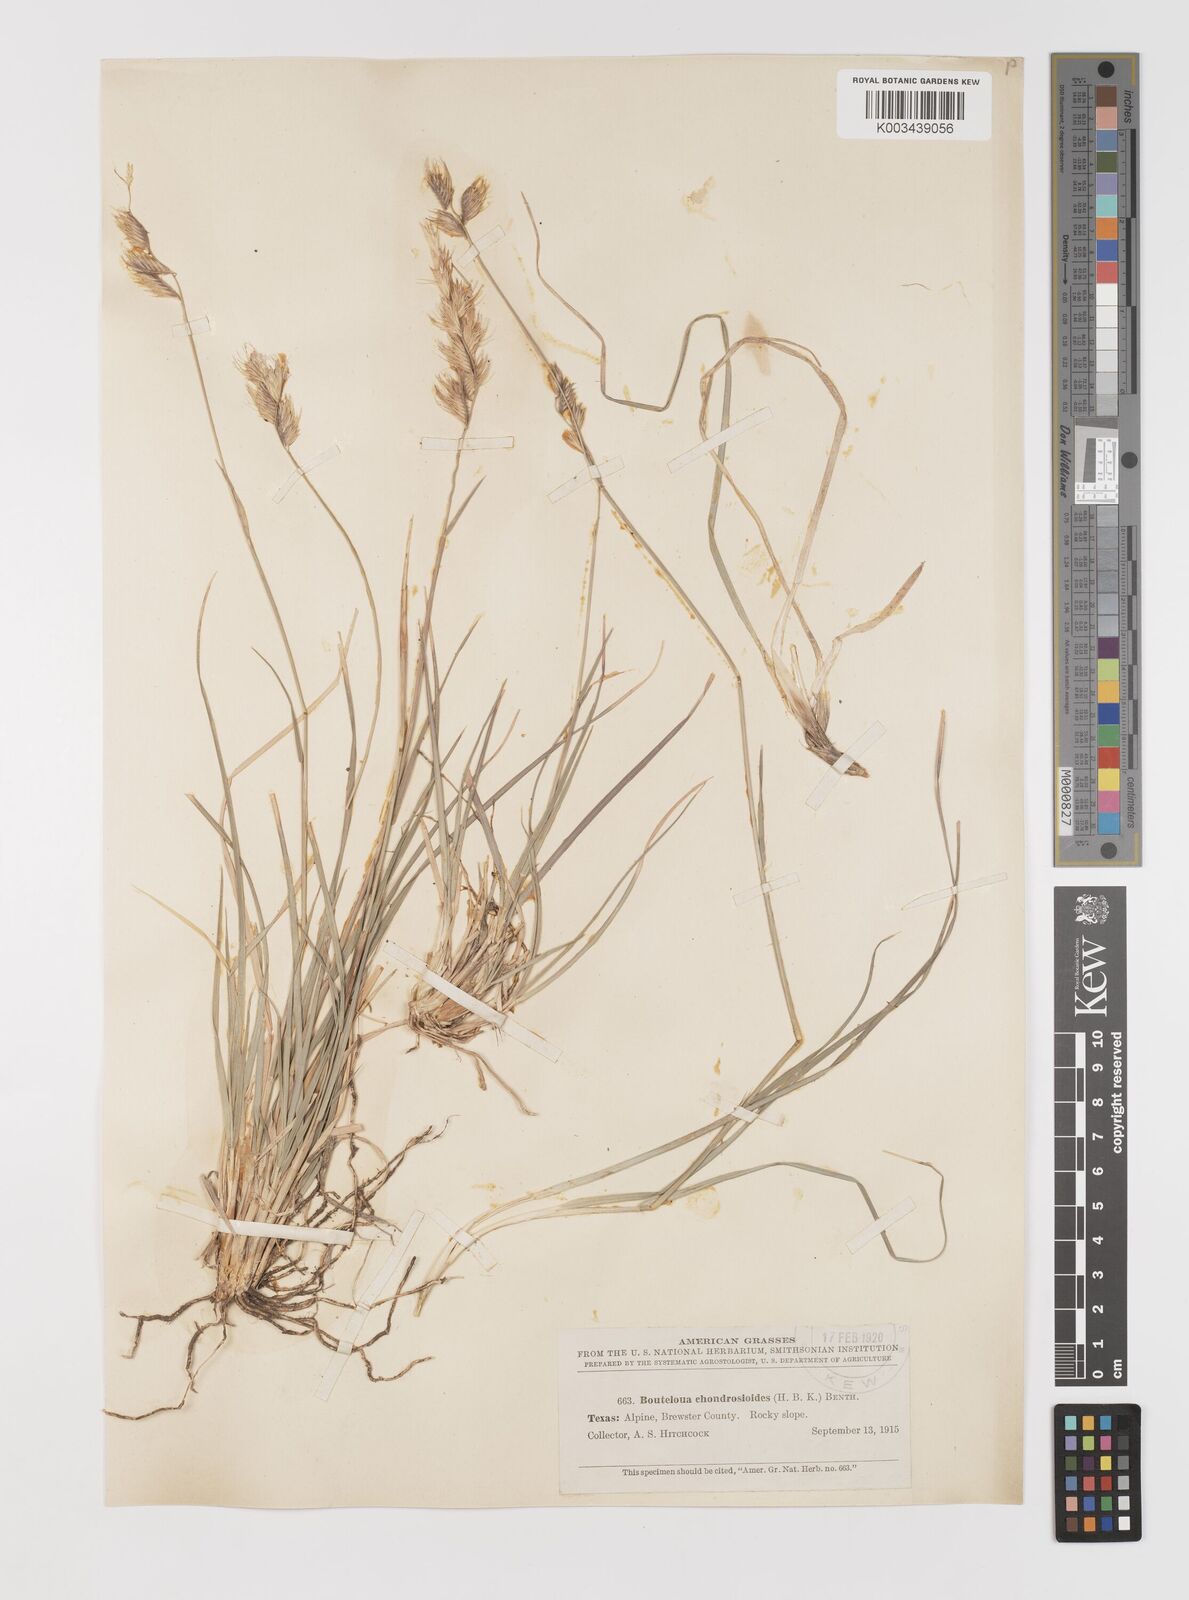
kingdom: Plantae
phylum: Tracheophyta
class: Liliopsida
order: Poales
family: Poaceae
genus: Bouteloua
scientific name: Bouteloua chondrosioides
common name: Sprucetop grama
